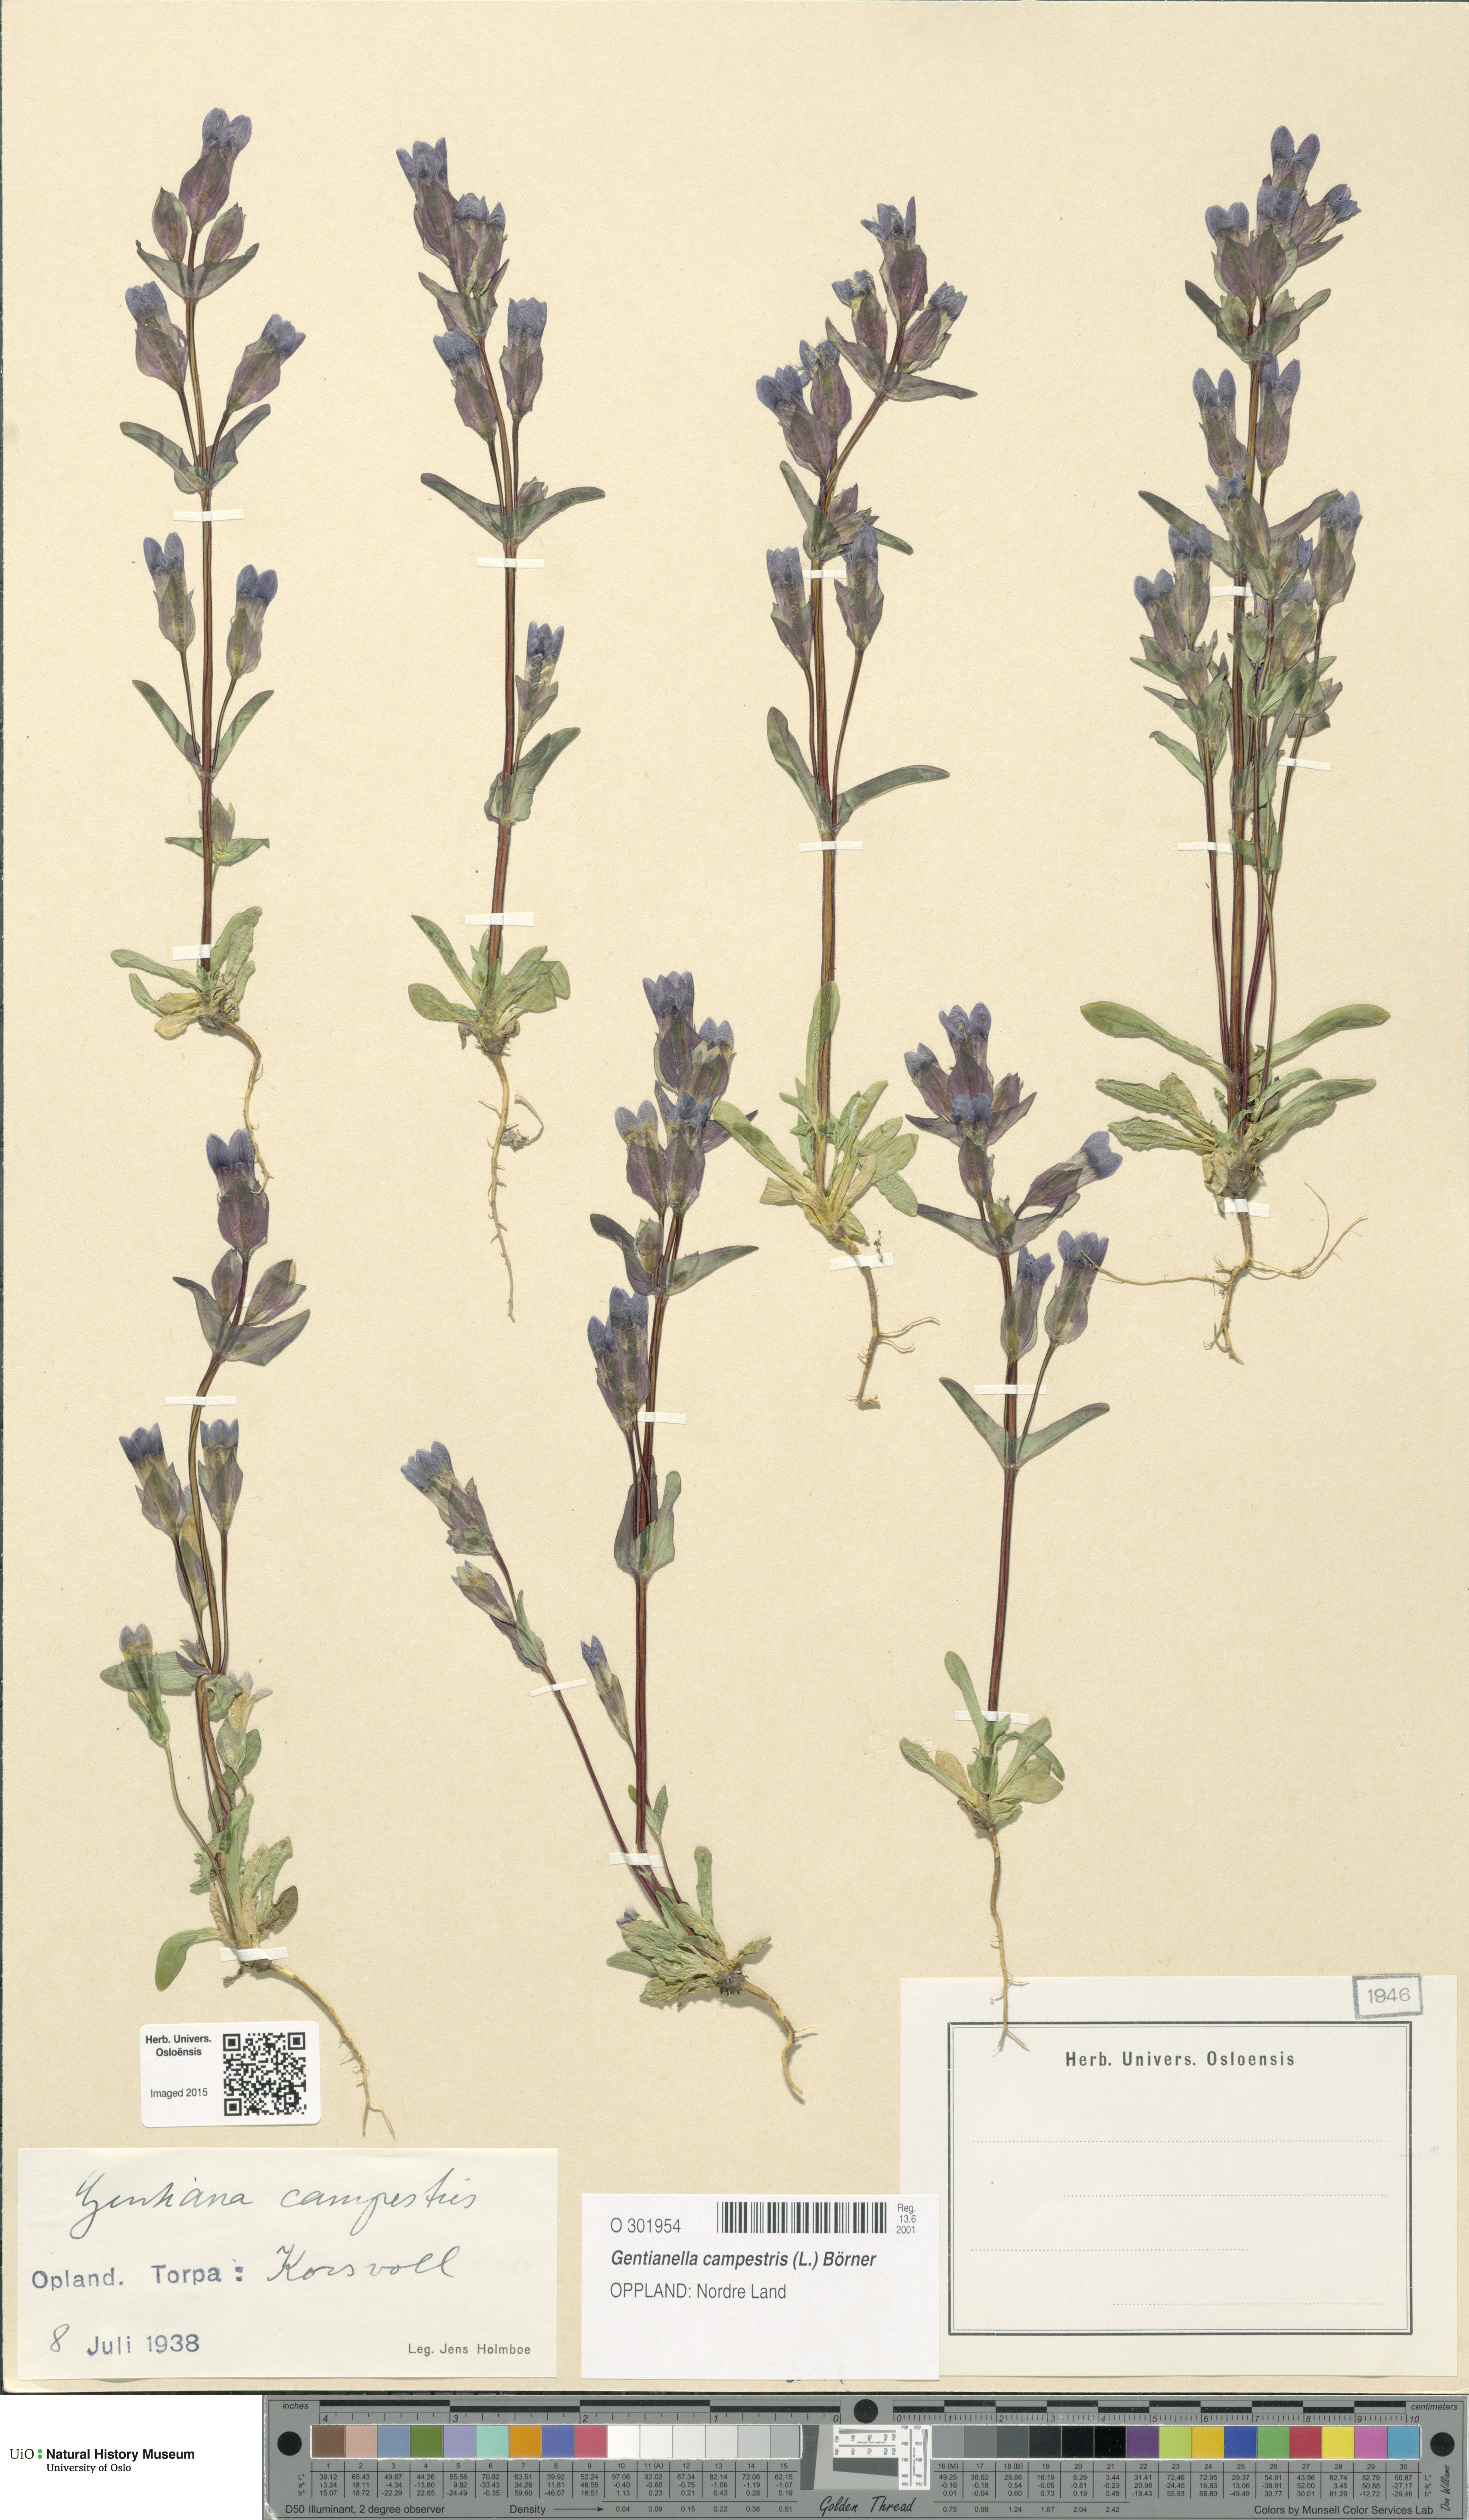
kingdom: Plantae
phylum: Tracheophyta
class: Magnoliopsida
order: Gentianales
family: Gentianaceae
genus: Gentianella
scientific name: Gentianella campestris
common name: Field gentian
